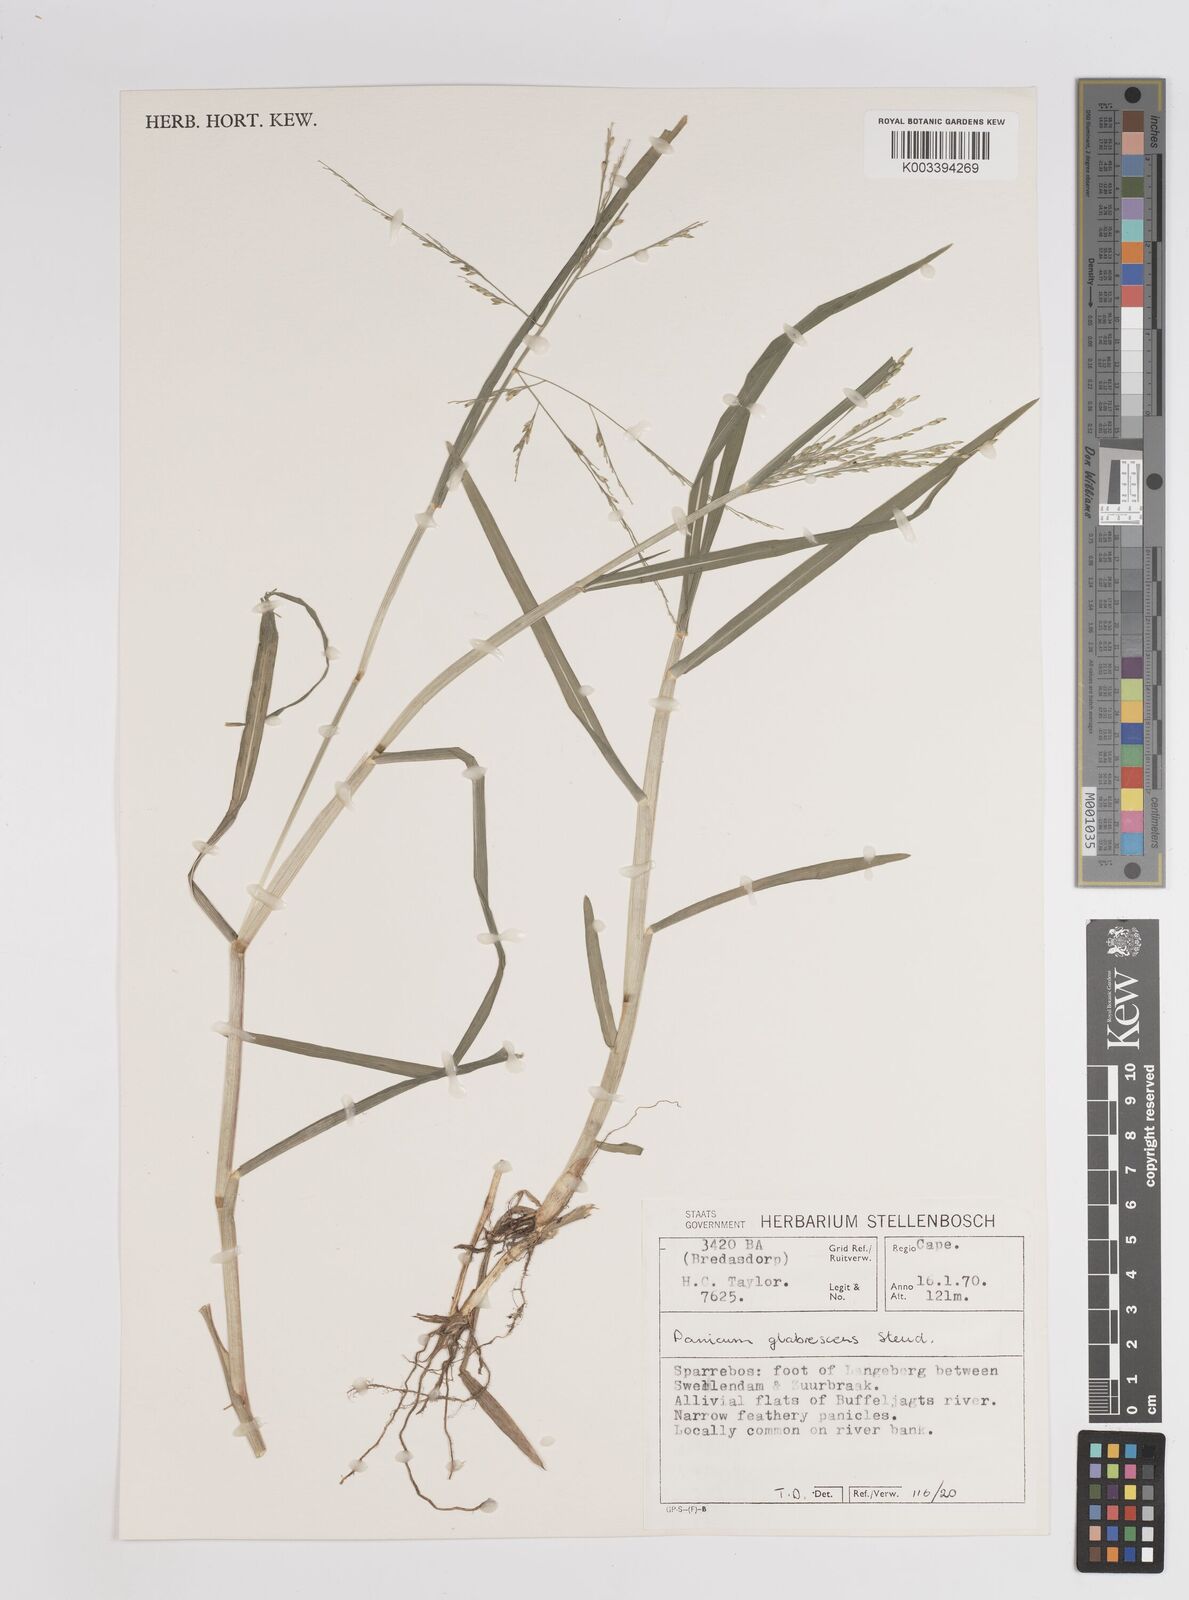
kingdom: Plantae
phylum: Tracheophyta
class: Liliopsida
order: Poales
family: Poaceae
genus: Panicum
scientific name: Panicum subalbidum
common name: Elbow buffalo grass
